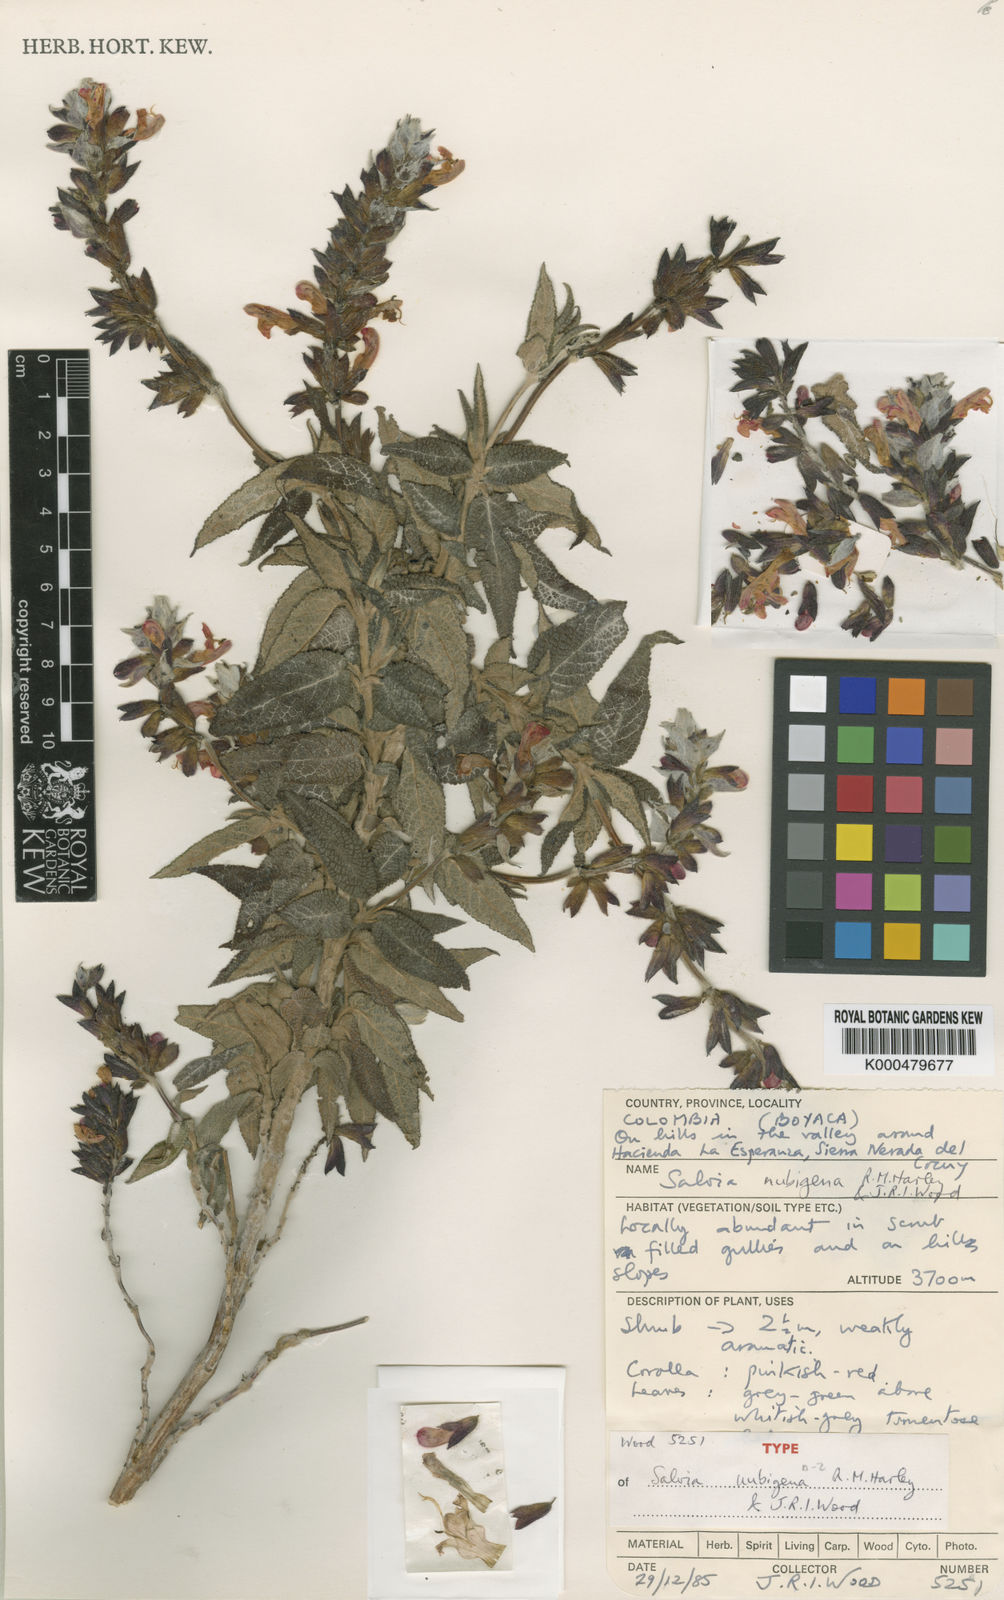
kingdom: Plantae
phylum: Tracheophyta
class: Magnoliopsida
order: Lamiales
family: Lamiaceae
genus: Salvia
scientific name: Salvia nubigena
